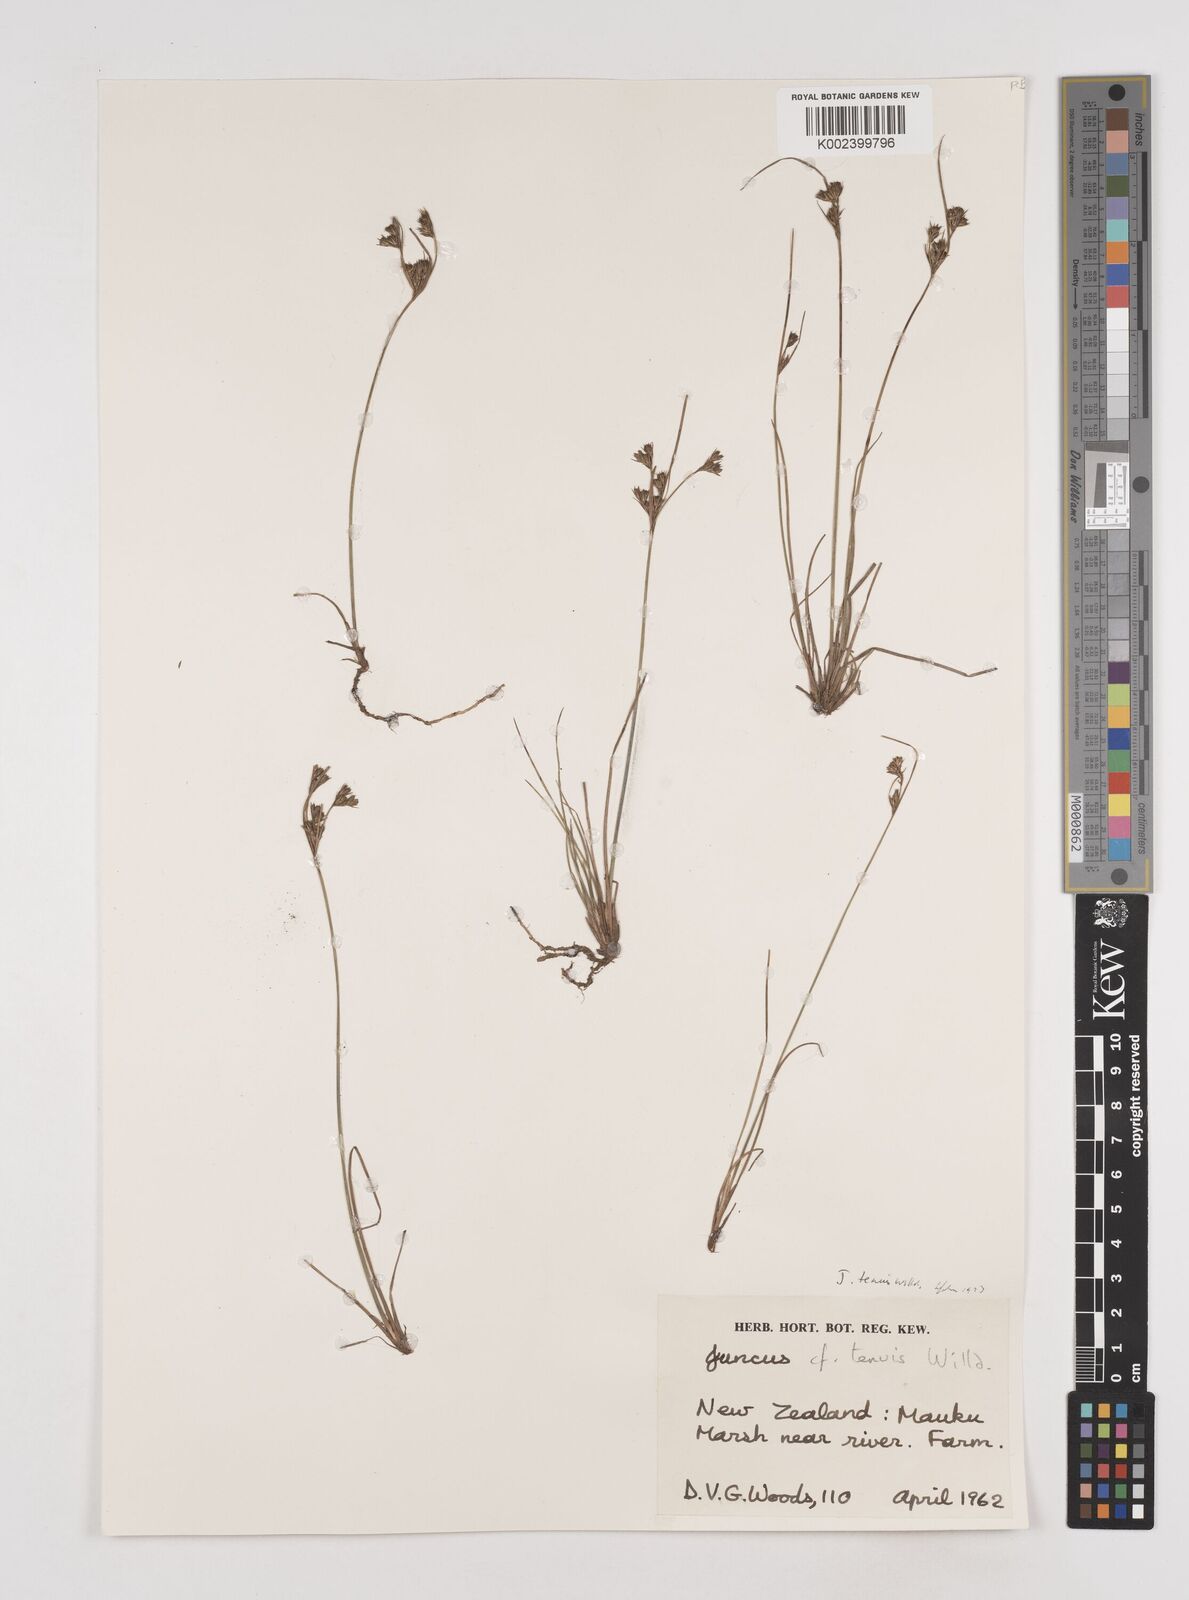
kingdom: Plantae
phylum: Tracheophyta
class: Liliopsida
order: Poales
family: Juncaceae
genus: Juncus
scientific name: Juncus tenuis
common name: Slender rush
